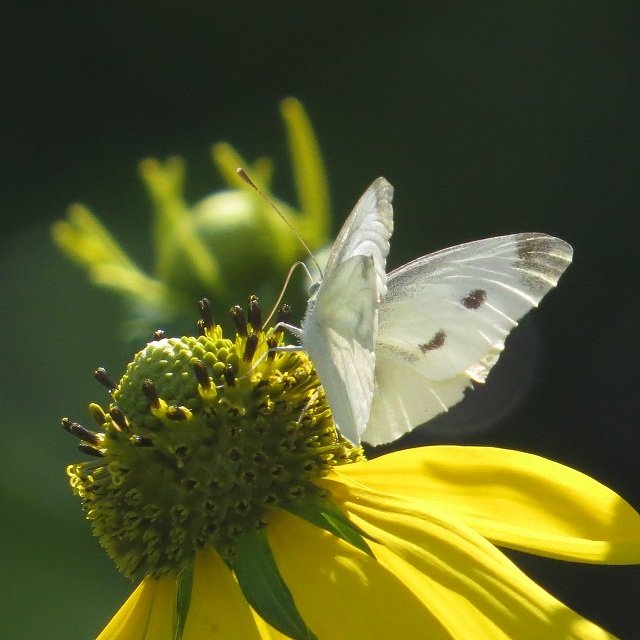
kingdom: Animalia
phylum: Arthropoda
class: Insecta
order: Lepidoptera
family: Pieridae
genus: Pieris
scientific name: Pieris rapae
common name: Cabbage White
